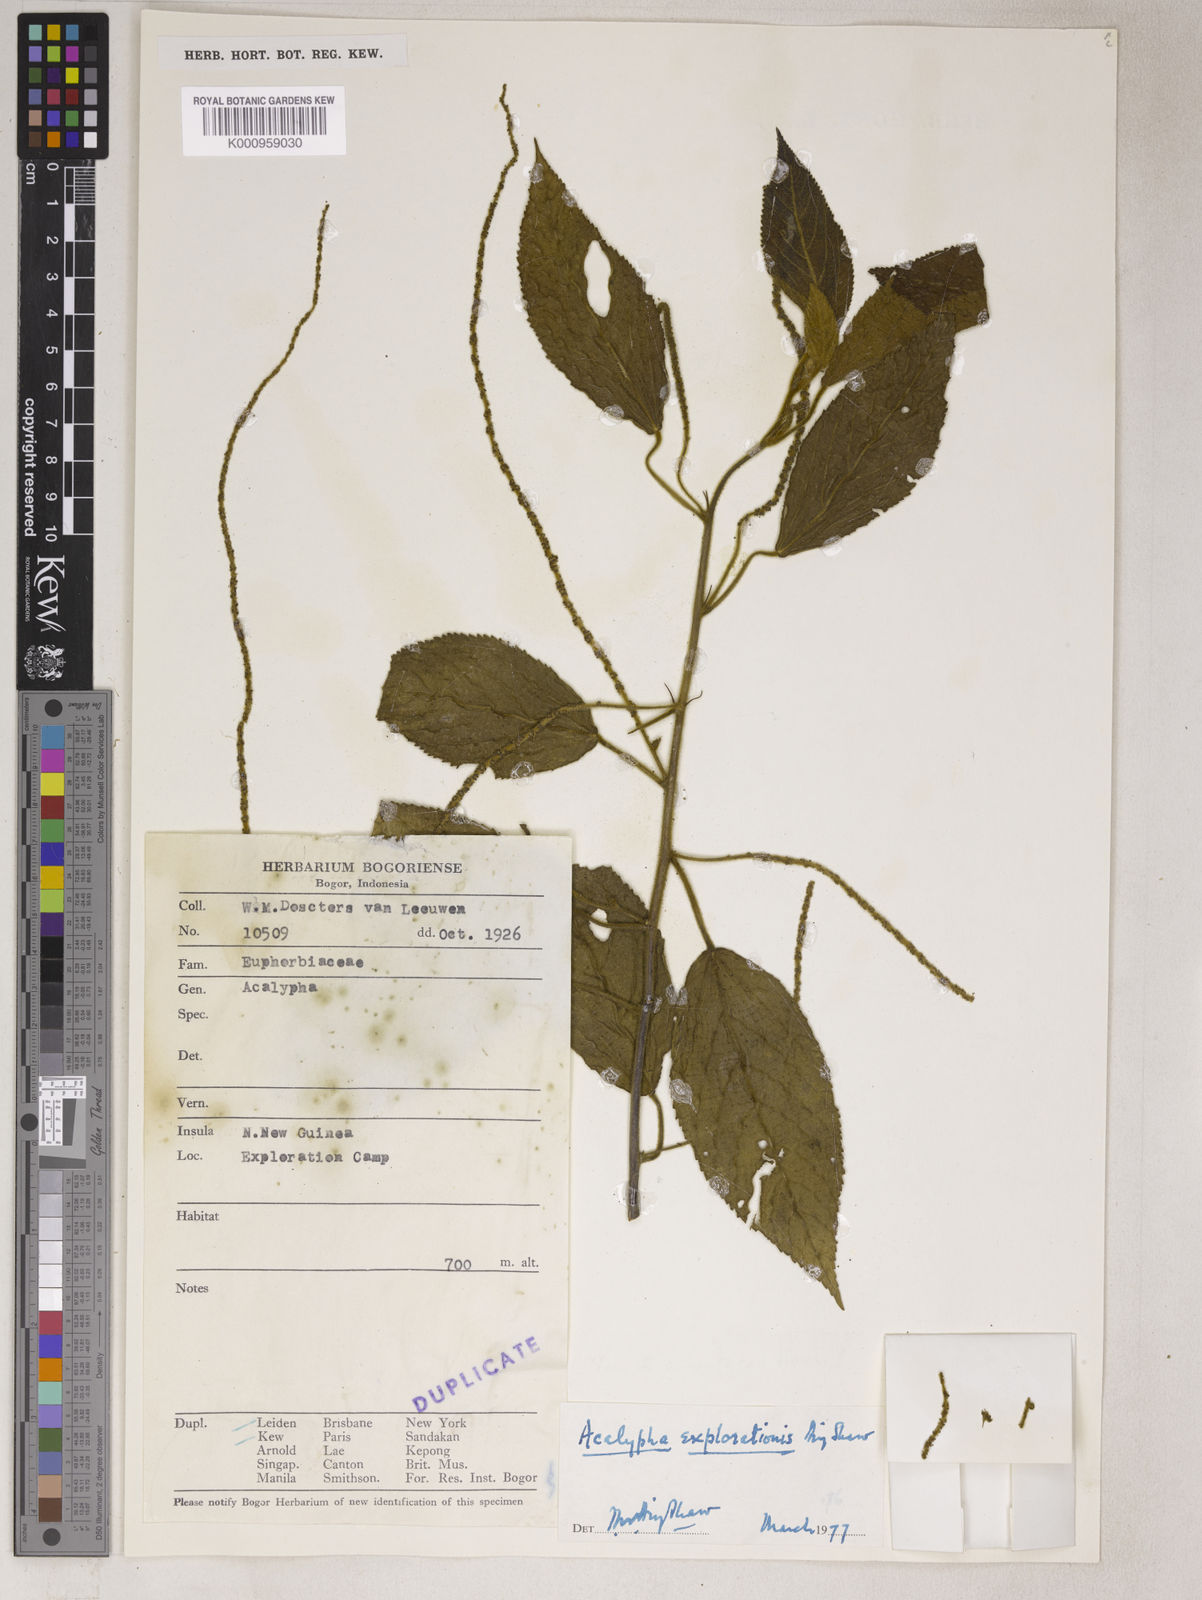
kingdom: Plantae
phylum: Tracheophyta
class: Magnoliopsida
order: Malpighiales
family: Euphorbiaceae
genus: Acalypha
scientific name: Acalypha hellwigii
